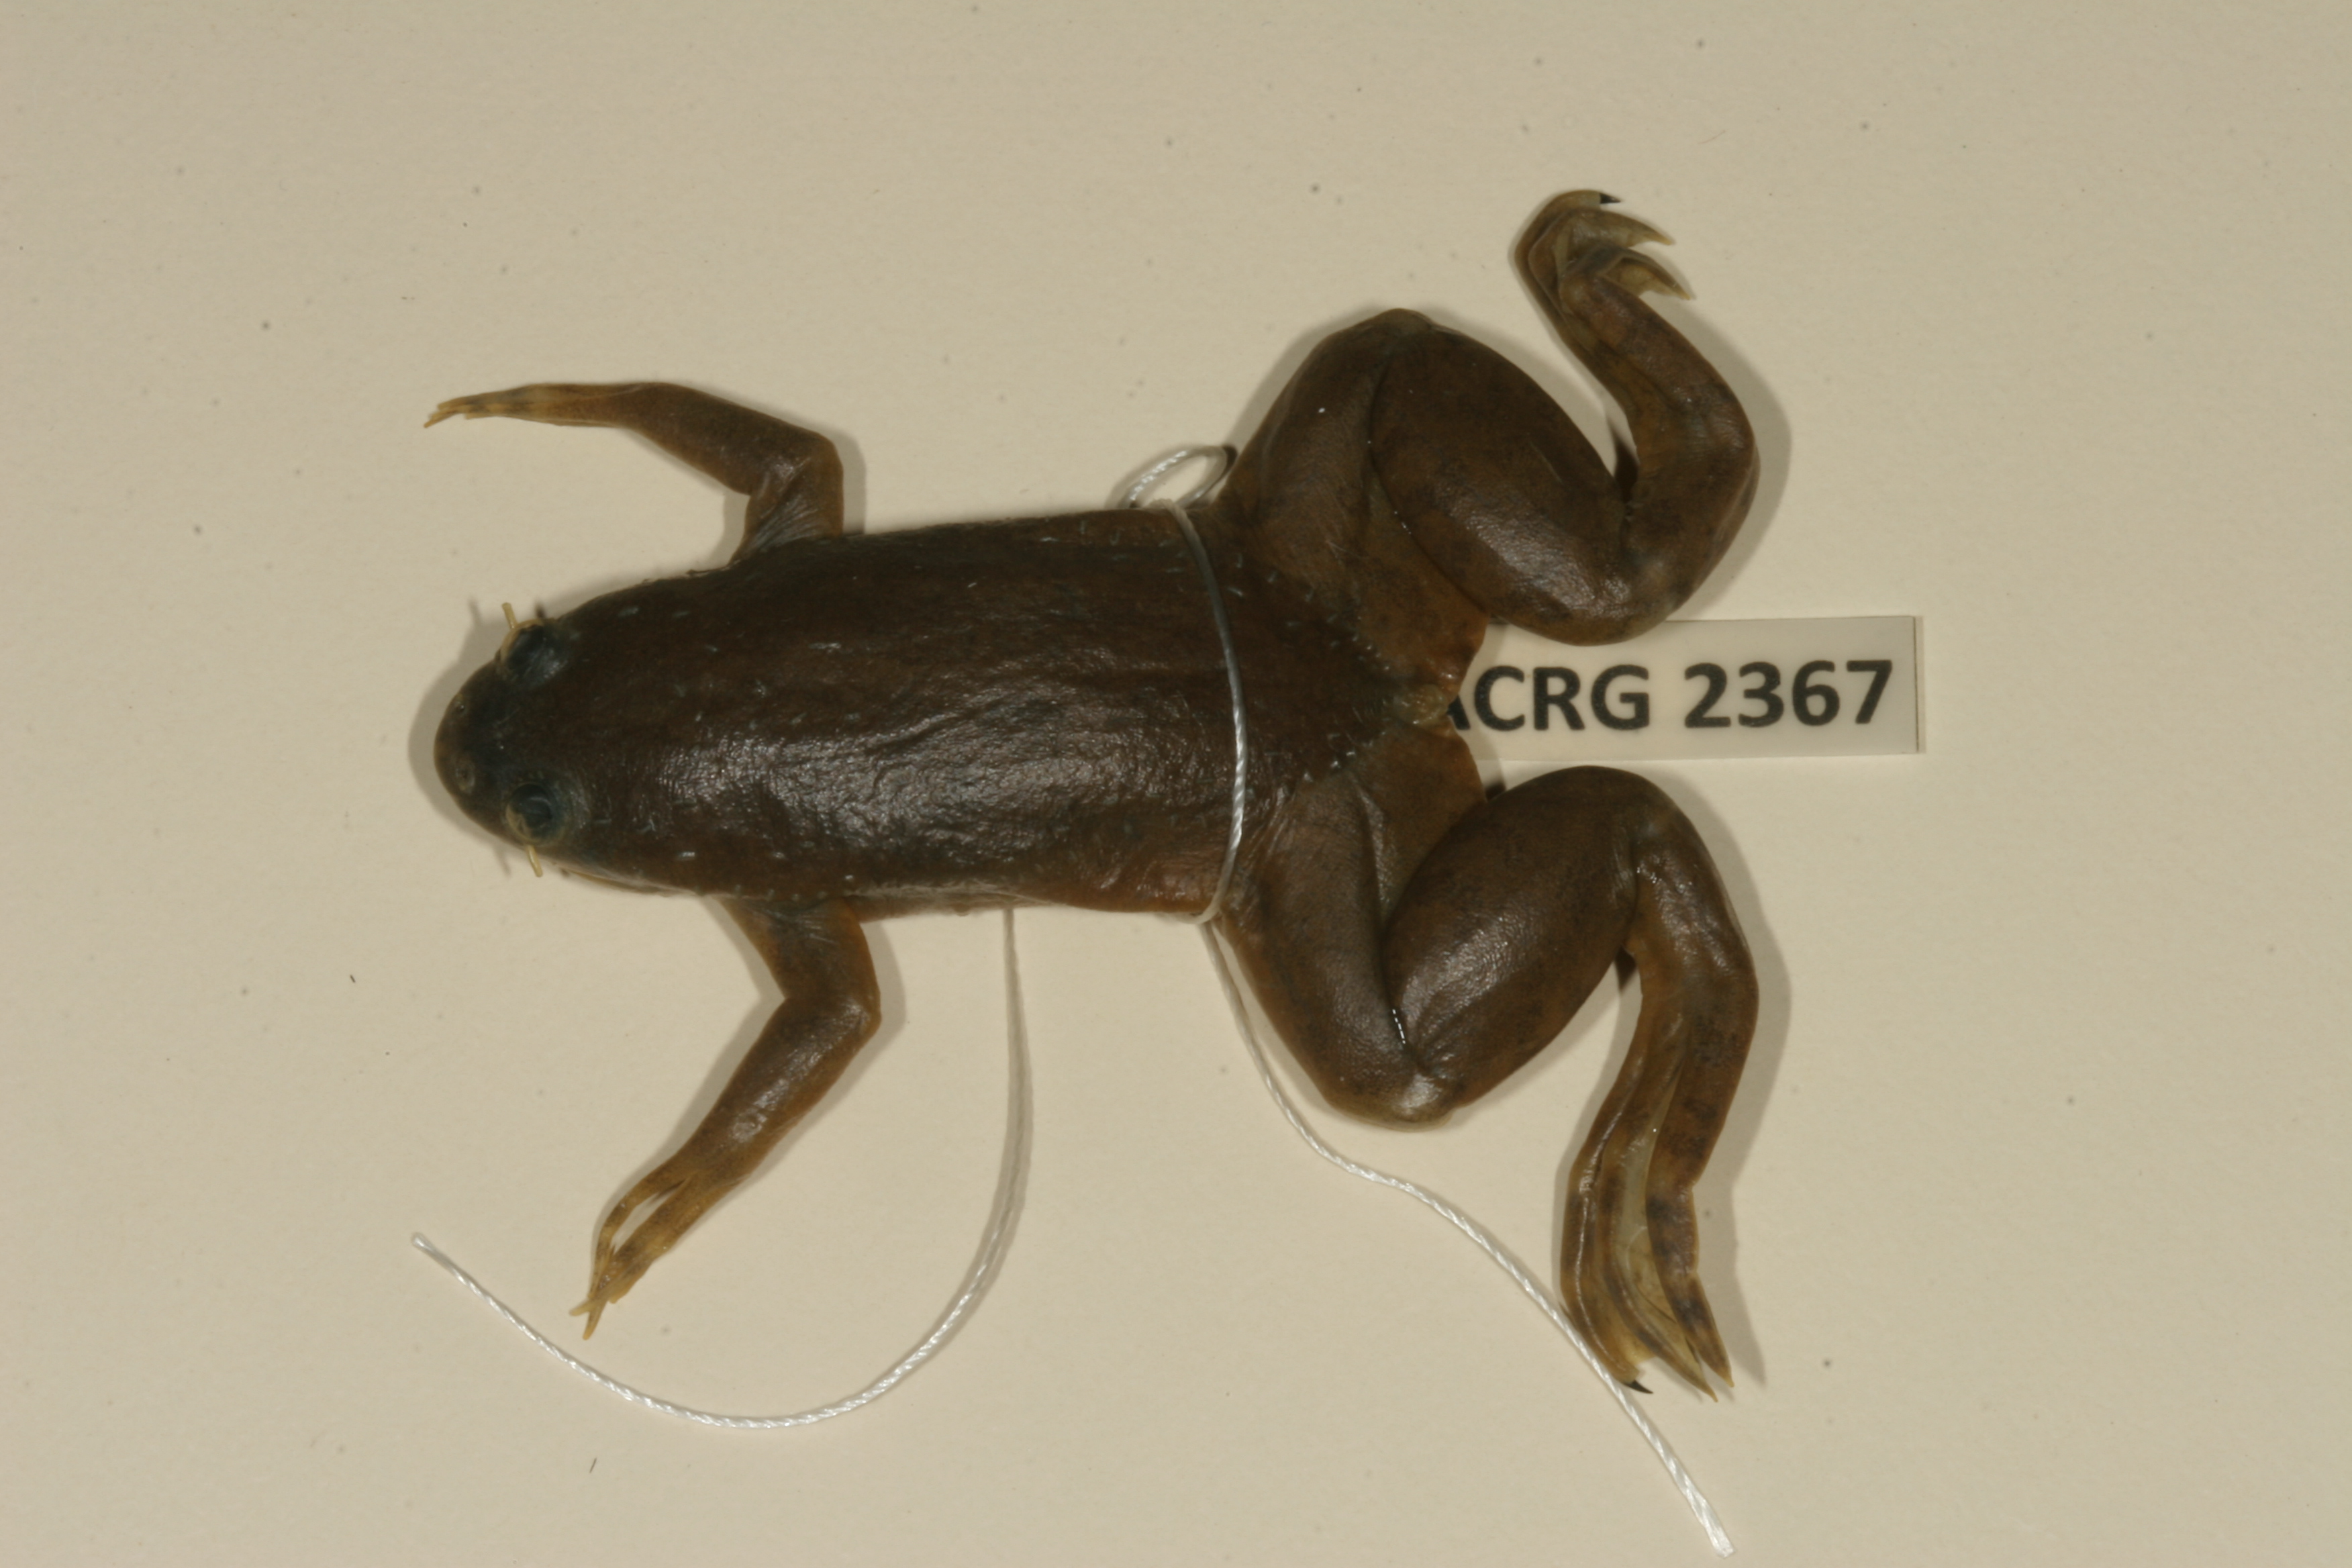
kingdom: Animalia
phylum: Chordata
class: Amphibia
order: Anura
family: Pipidae
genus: Xenopus
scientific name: Xenopus muelleri
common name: Muller's clawed frog
